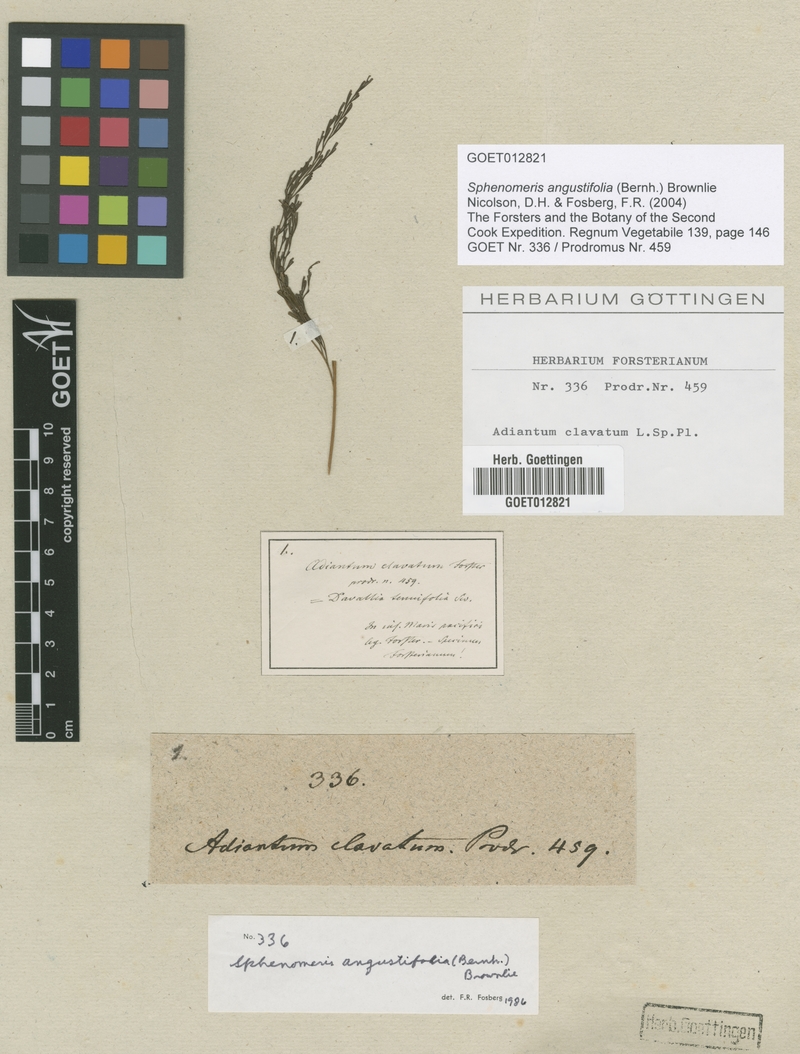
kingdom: Plantae
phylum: Tracheophyta
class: Polypodiopsida
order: Polypodiales
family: Lindsaeaceae
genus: Odontosoria
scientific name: Odontosoria angustifolia
